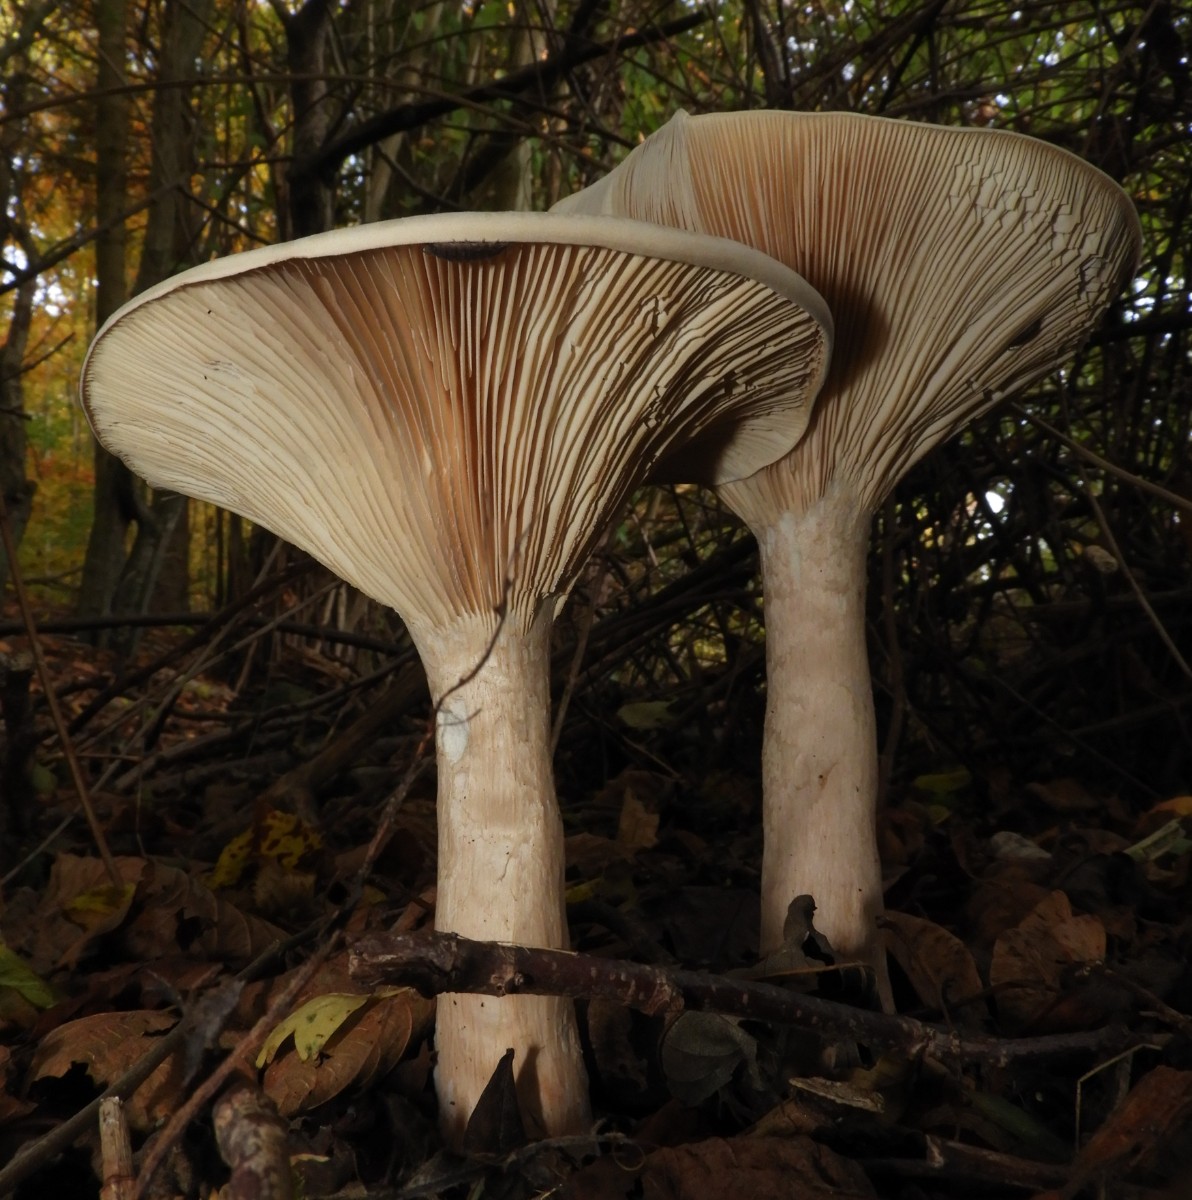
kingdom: Fungi
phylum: Basidiomycota
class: Agaricomycetes
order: Agaricales
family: Tricholomataceae
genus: Infundibulicybe
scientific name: Infundibulicybe geotropa
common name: stor tragthat
